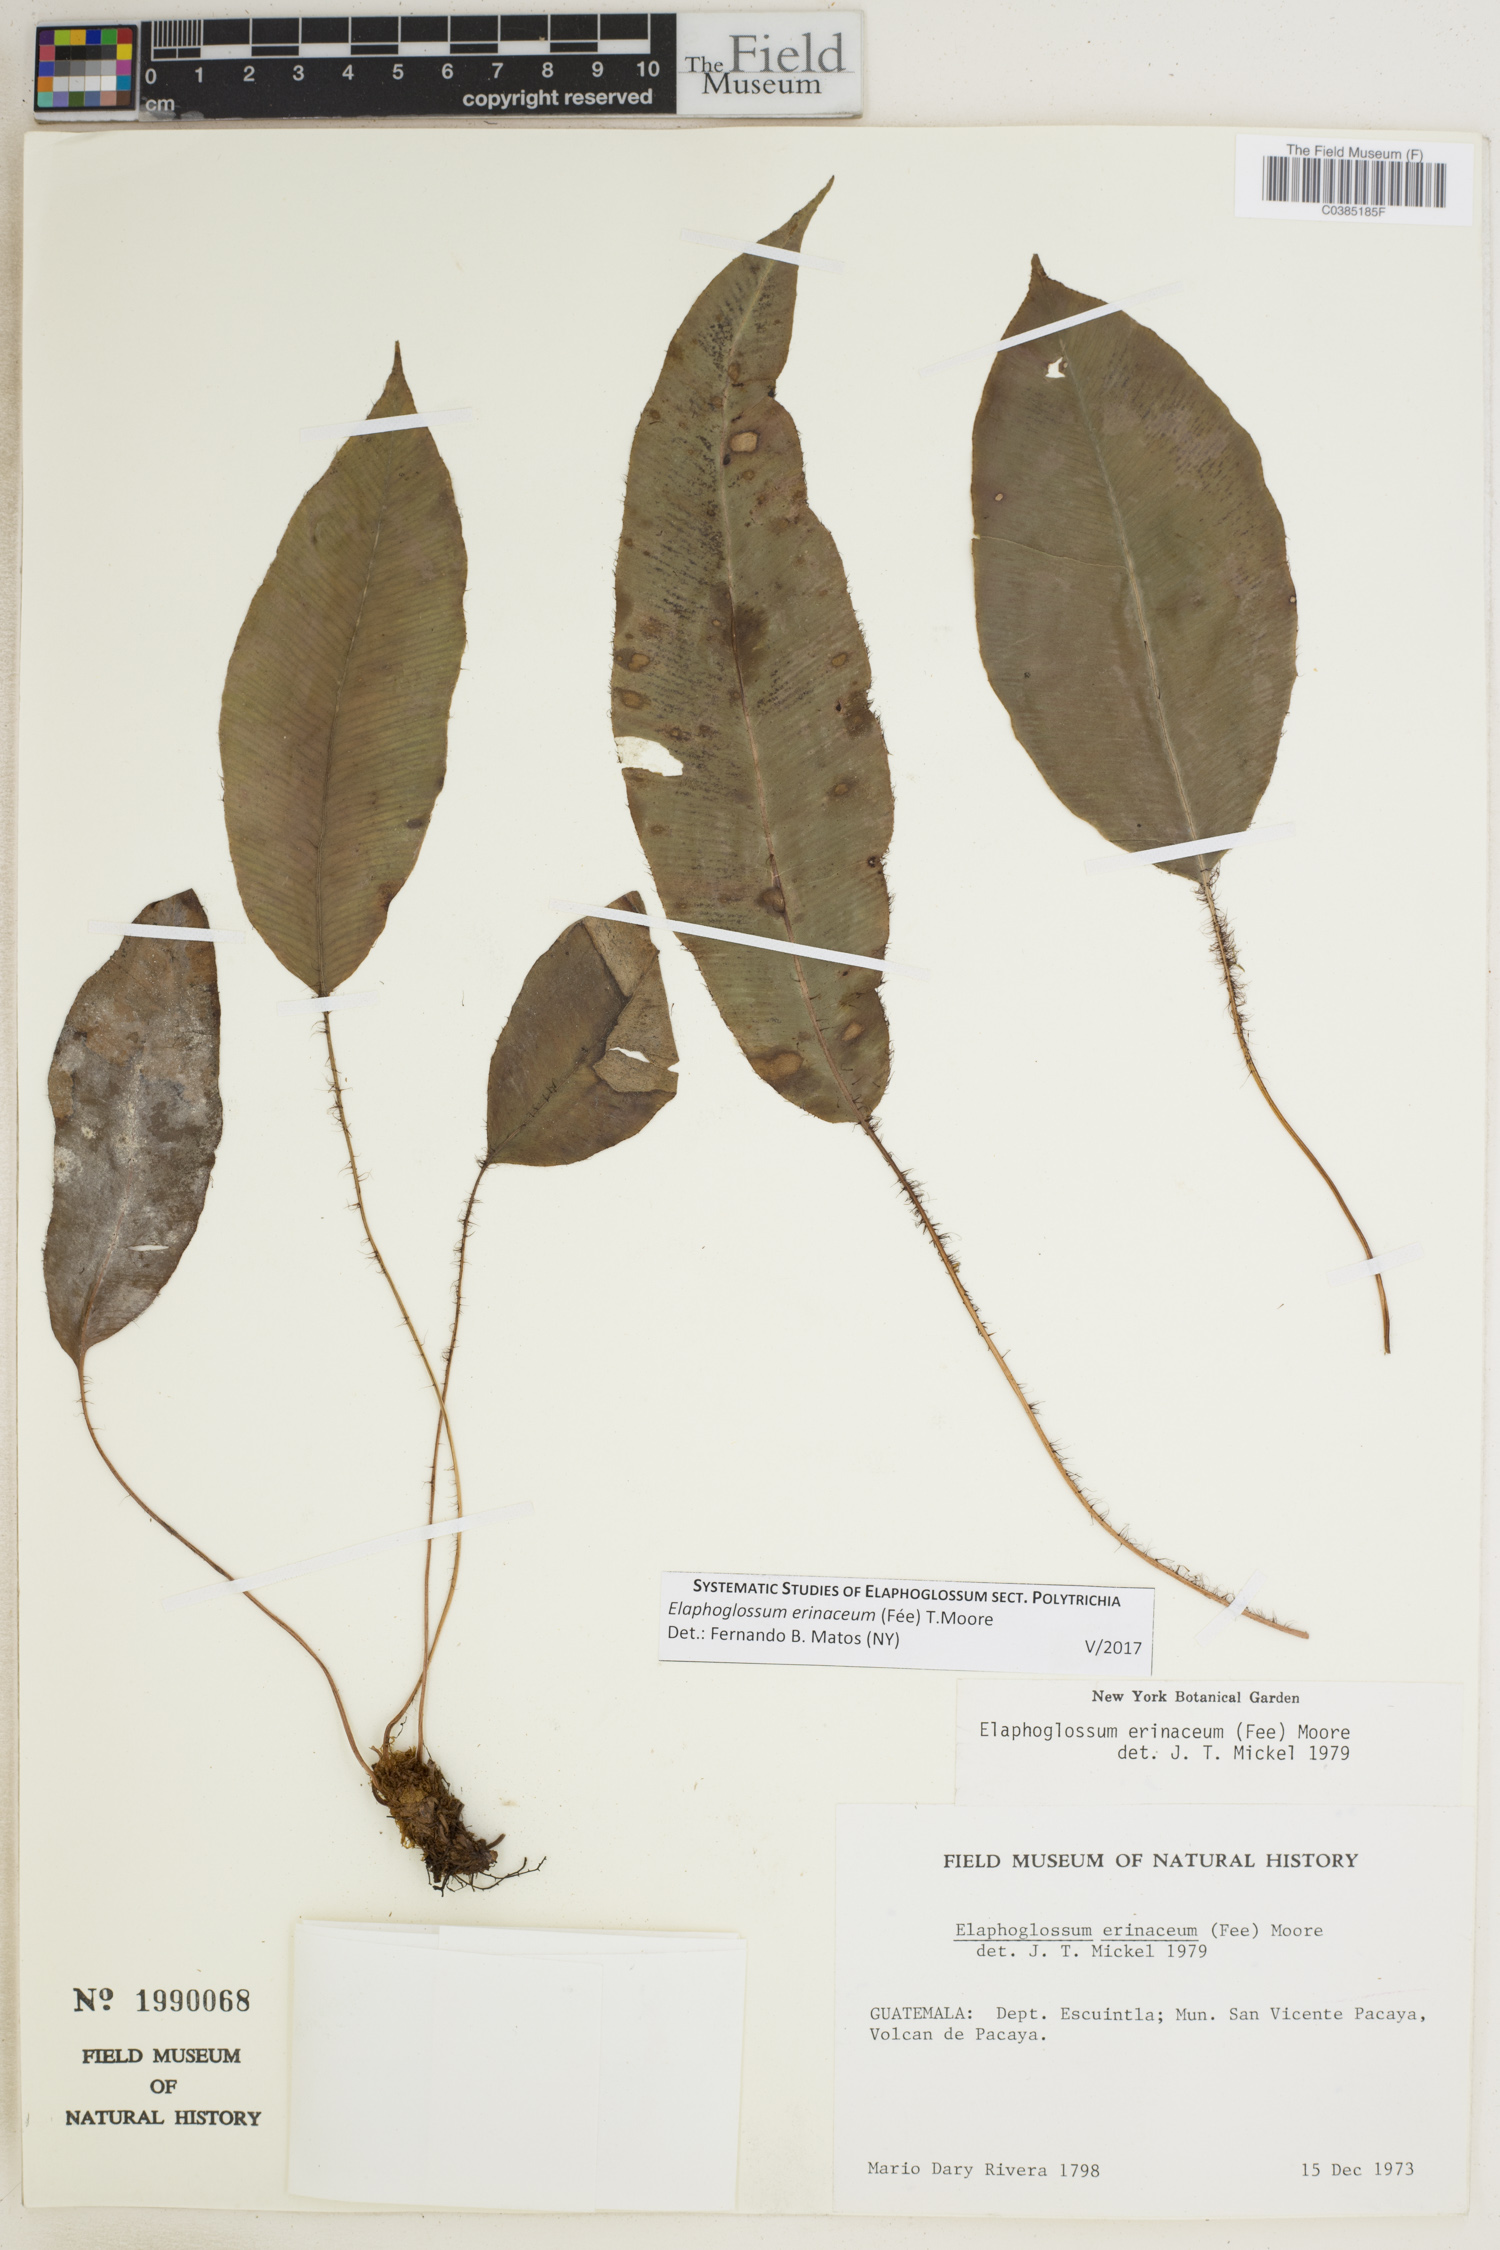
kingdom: Plantae
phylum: Tracheophyta
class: Polypodiopsida
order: Polypodiales
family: Dryopteridaceae
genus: Elaphoglossum
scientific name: Elaphoglossum erinaceum
